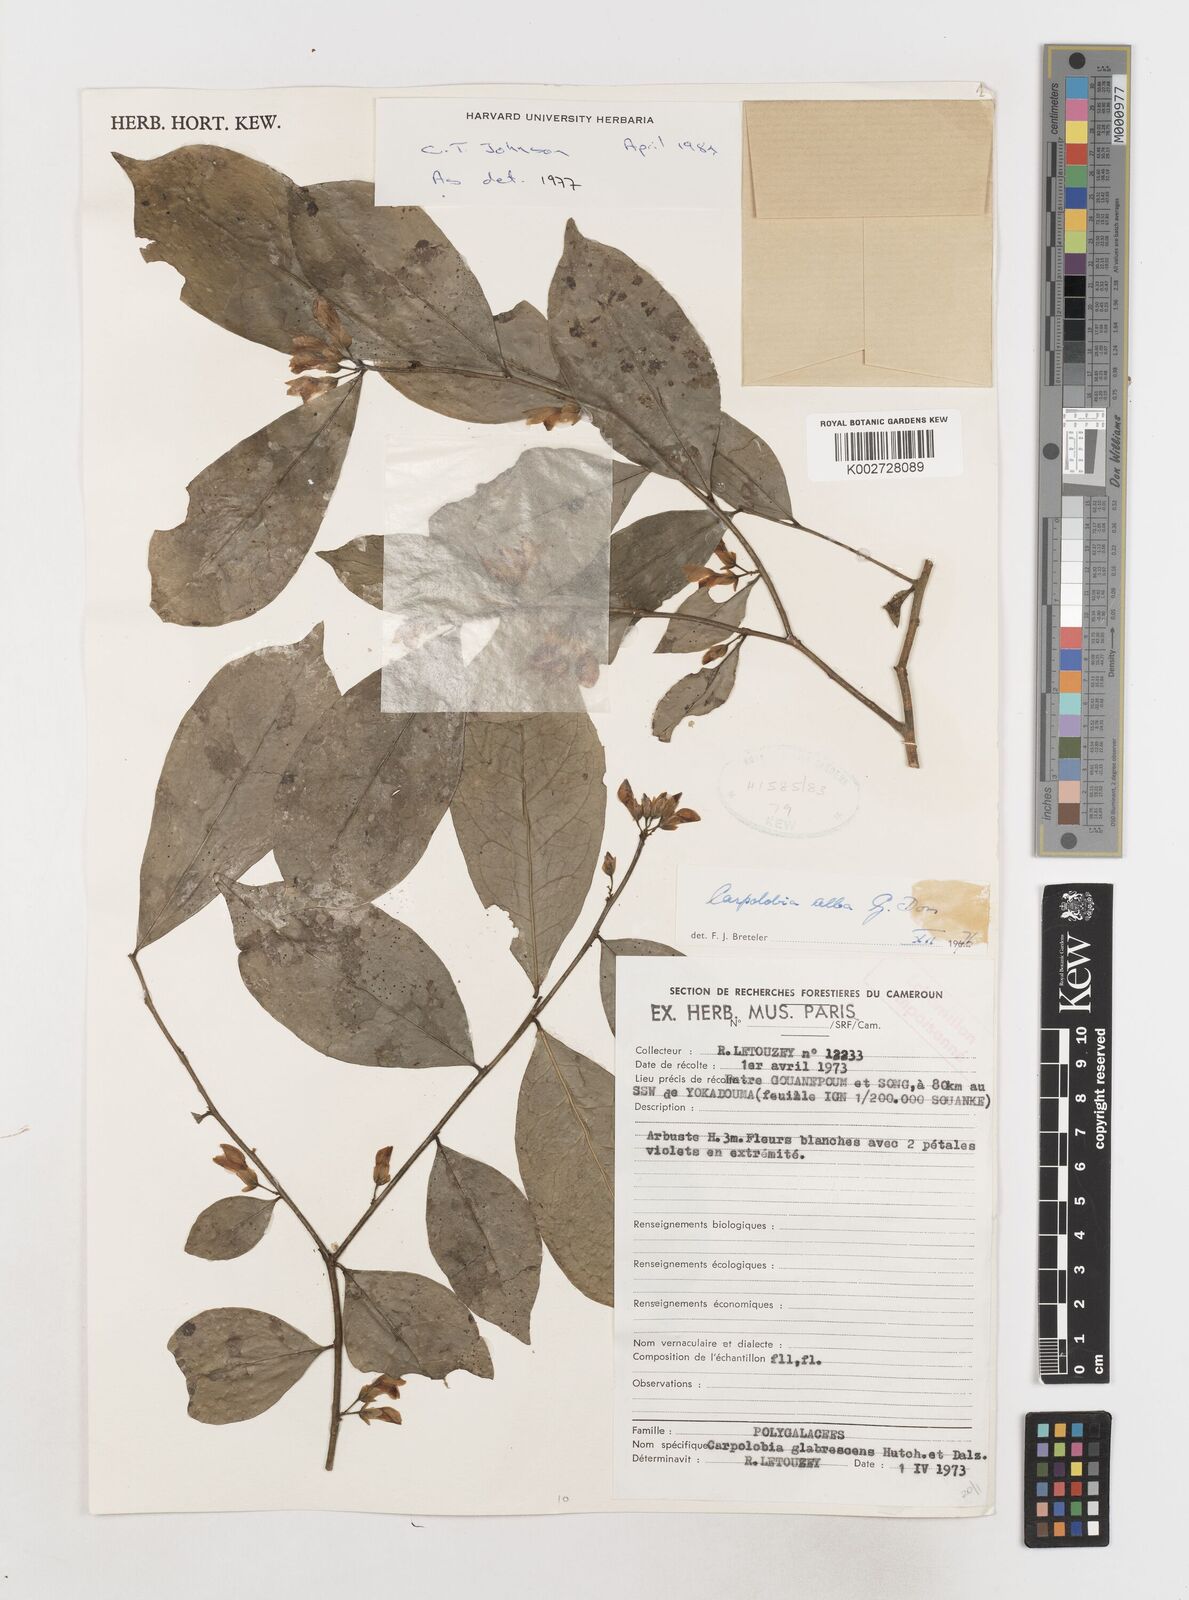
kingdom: Plantae
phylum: Tracheophyta
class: Magnoliopsida
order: Fabales
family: Polygalaceae
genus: Carpolobia
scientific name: Carpolobia alba
